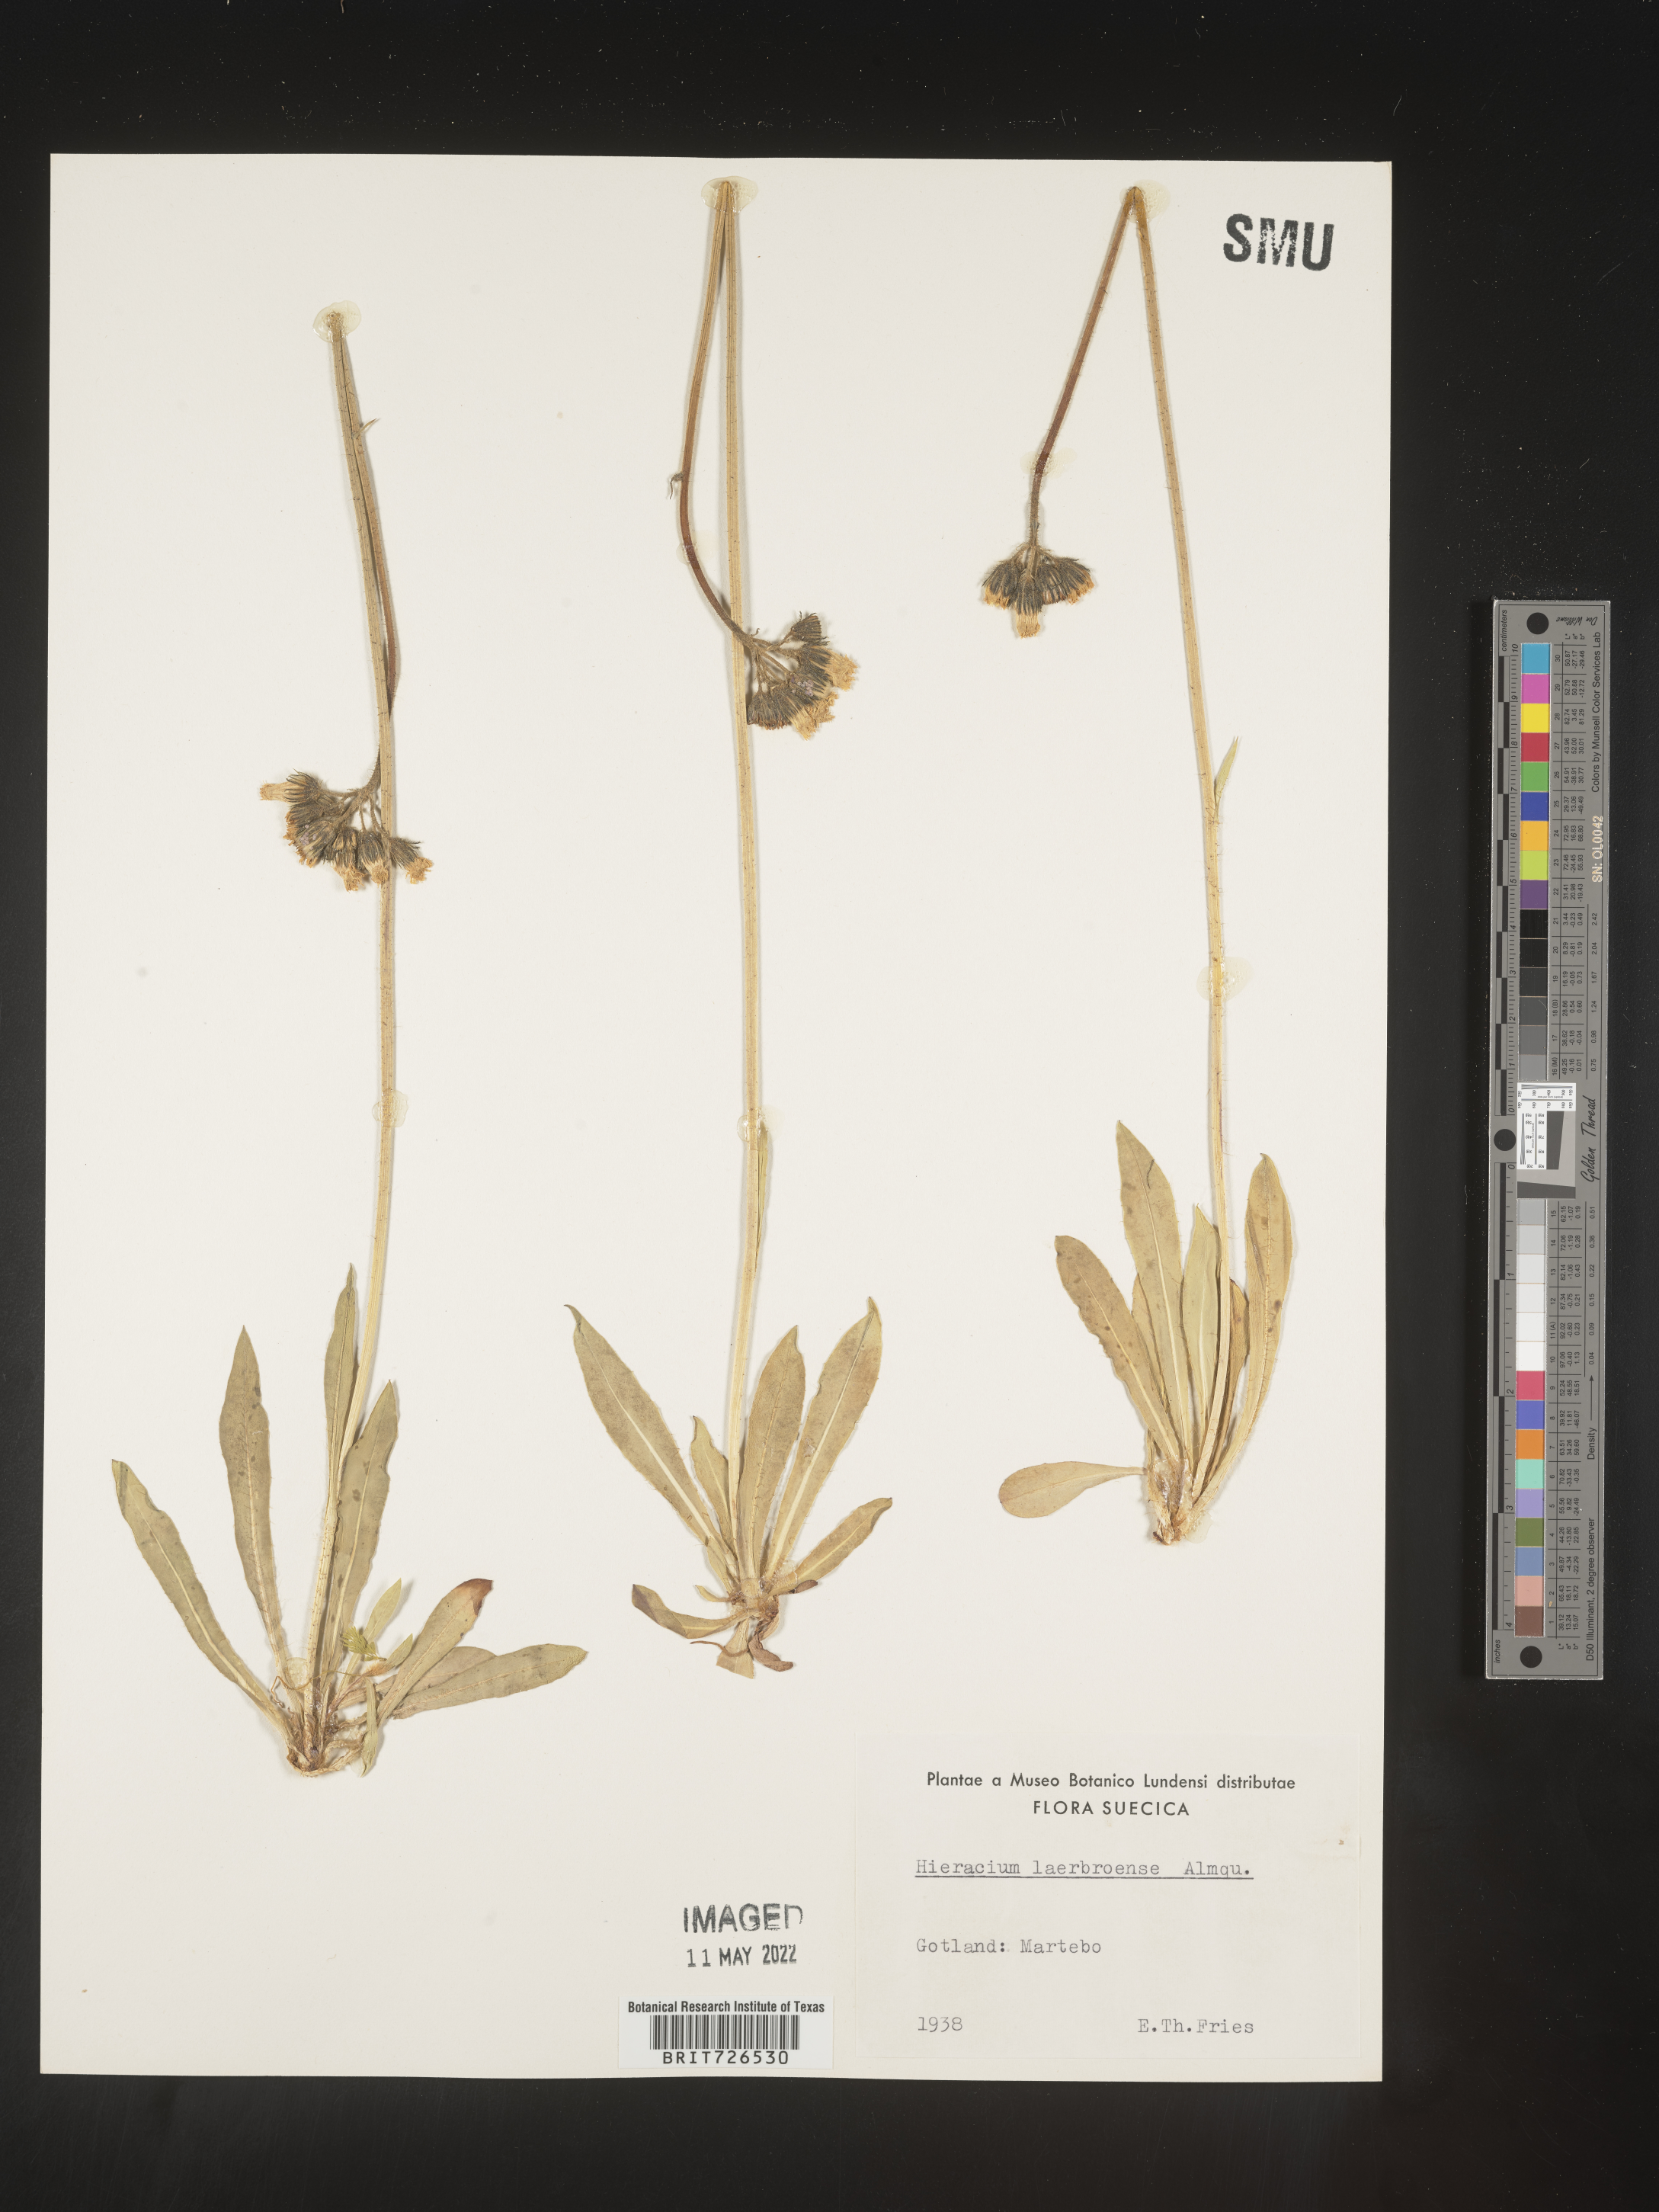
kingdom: Plantae
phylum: Tracheophyta
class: Magnoliopsida
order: Asterales
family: Asteraceae
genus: Hieracium
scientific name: Hieracium
